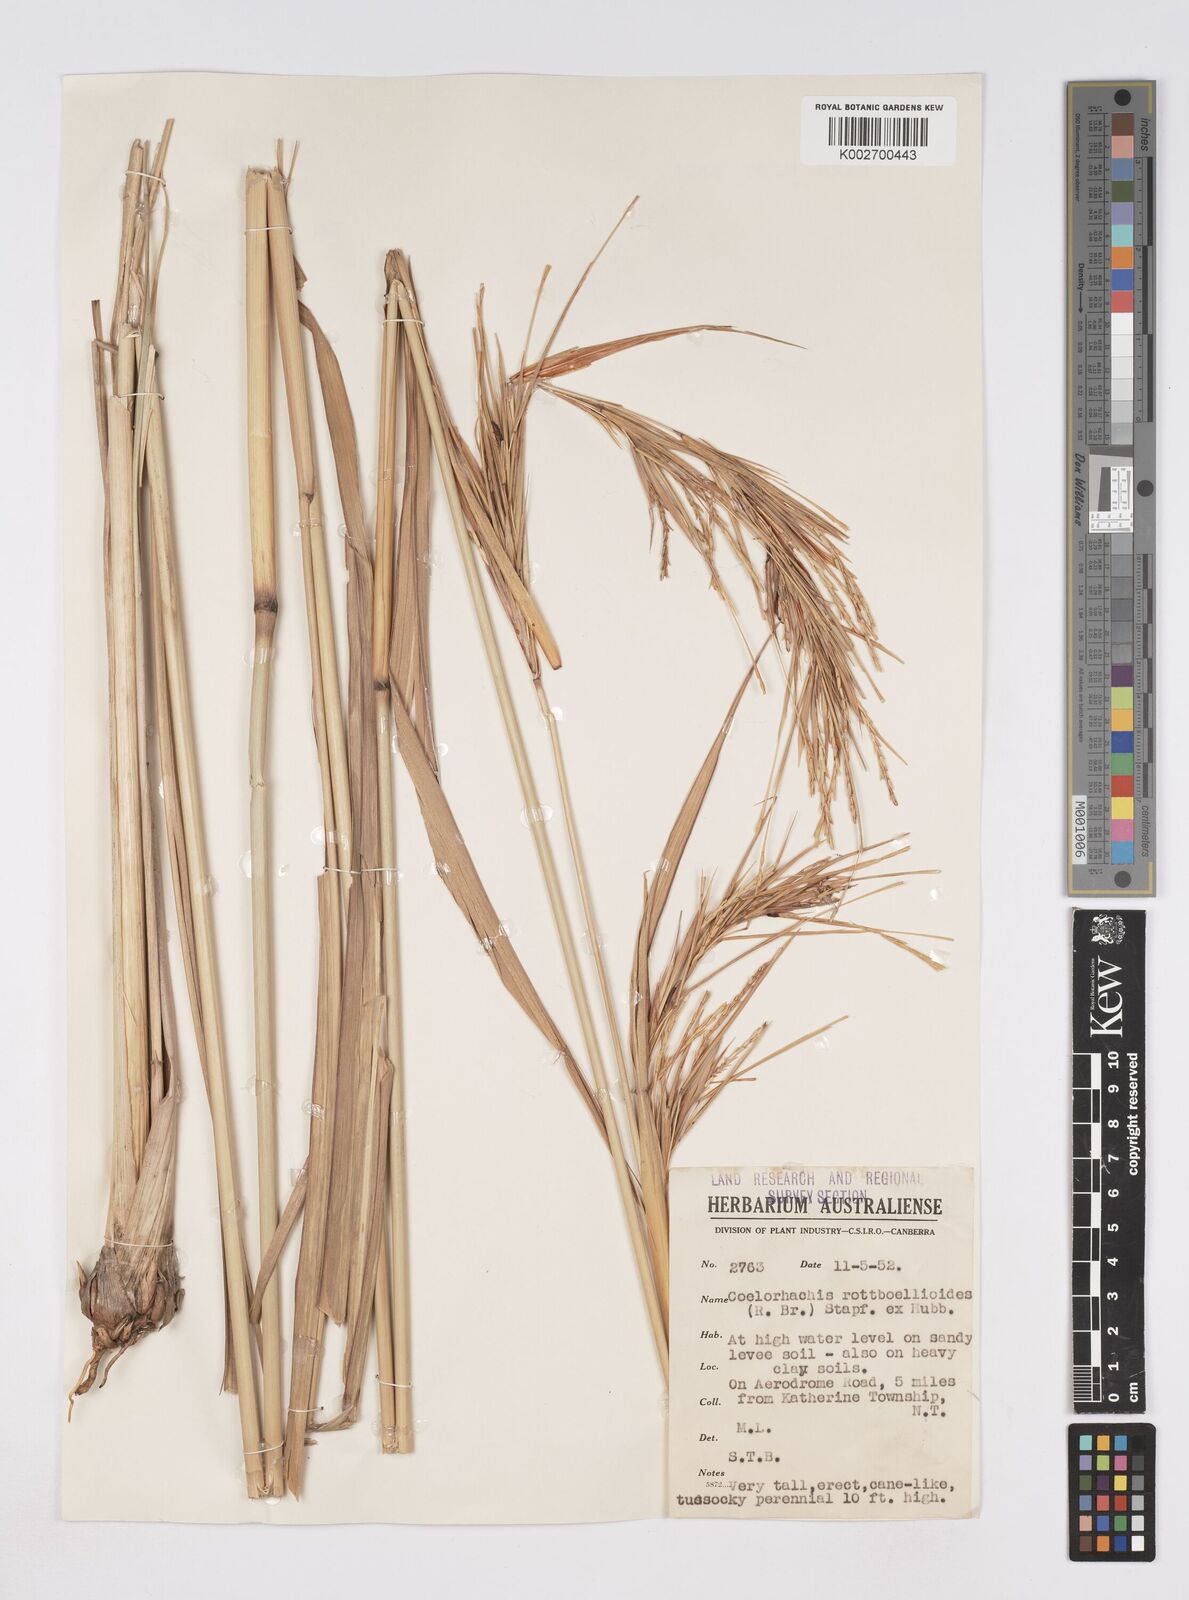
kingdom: Plantae
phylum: Tracheophyta
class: Liliopsida
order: Poales
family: Poaceae
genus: Rottboellia
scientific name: Rottboellia rottboellioides
